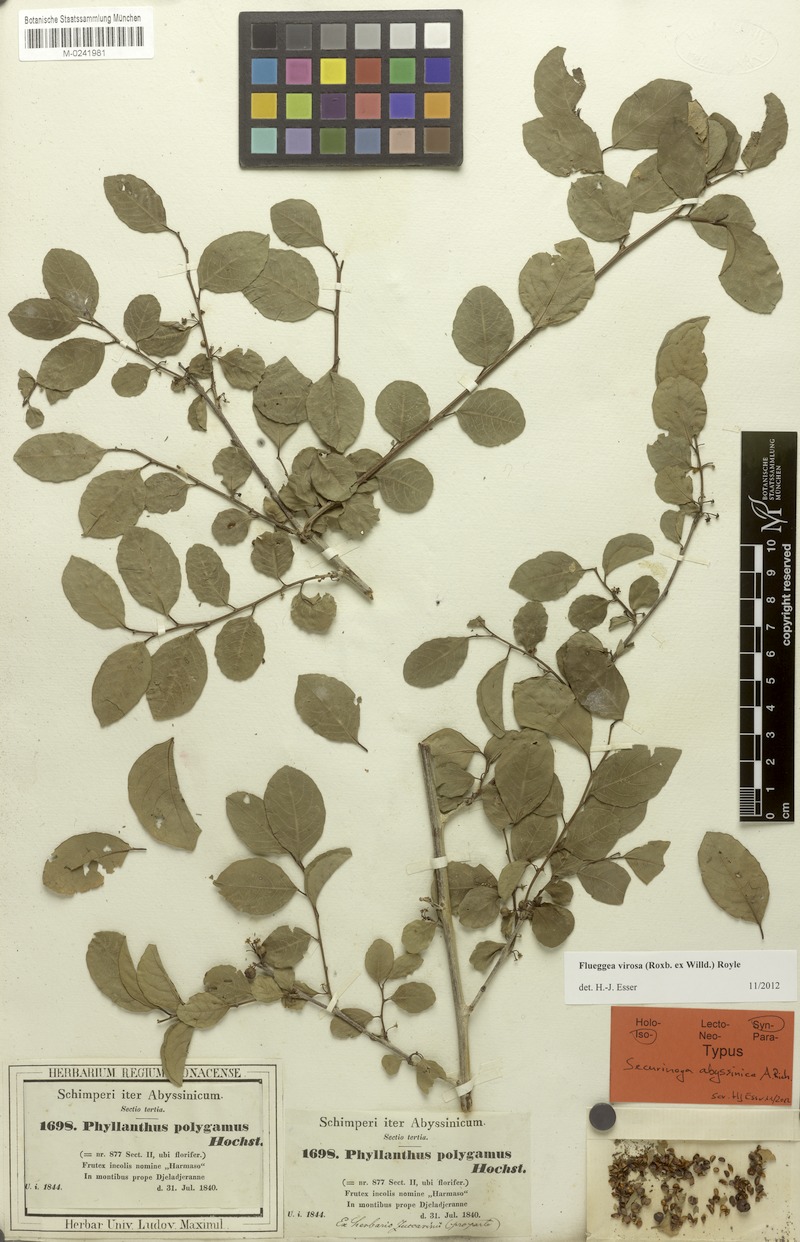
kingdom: Plantae
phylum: Tracheophyta
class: Magnoliopsida
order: Malpighiales
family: Phyllanthaceae
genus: Flueggea
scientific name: Flueggea virosa
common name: Common bushweed
